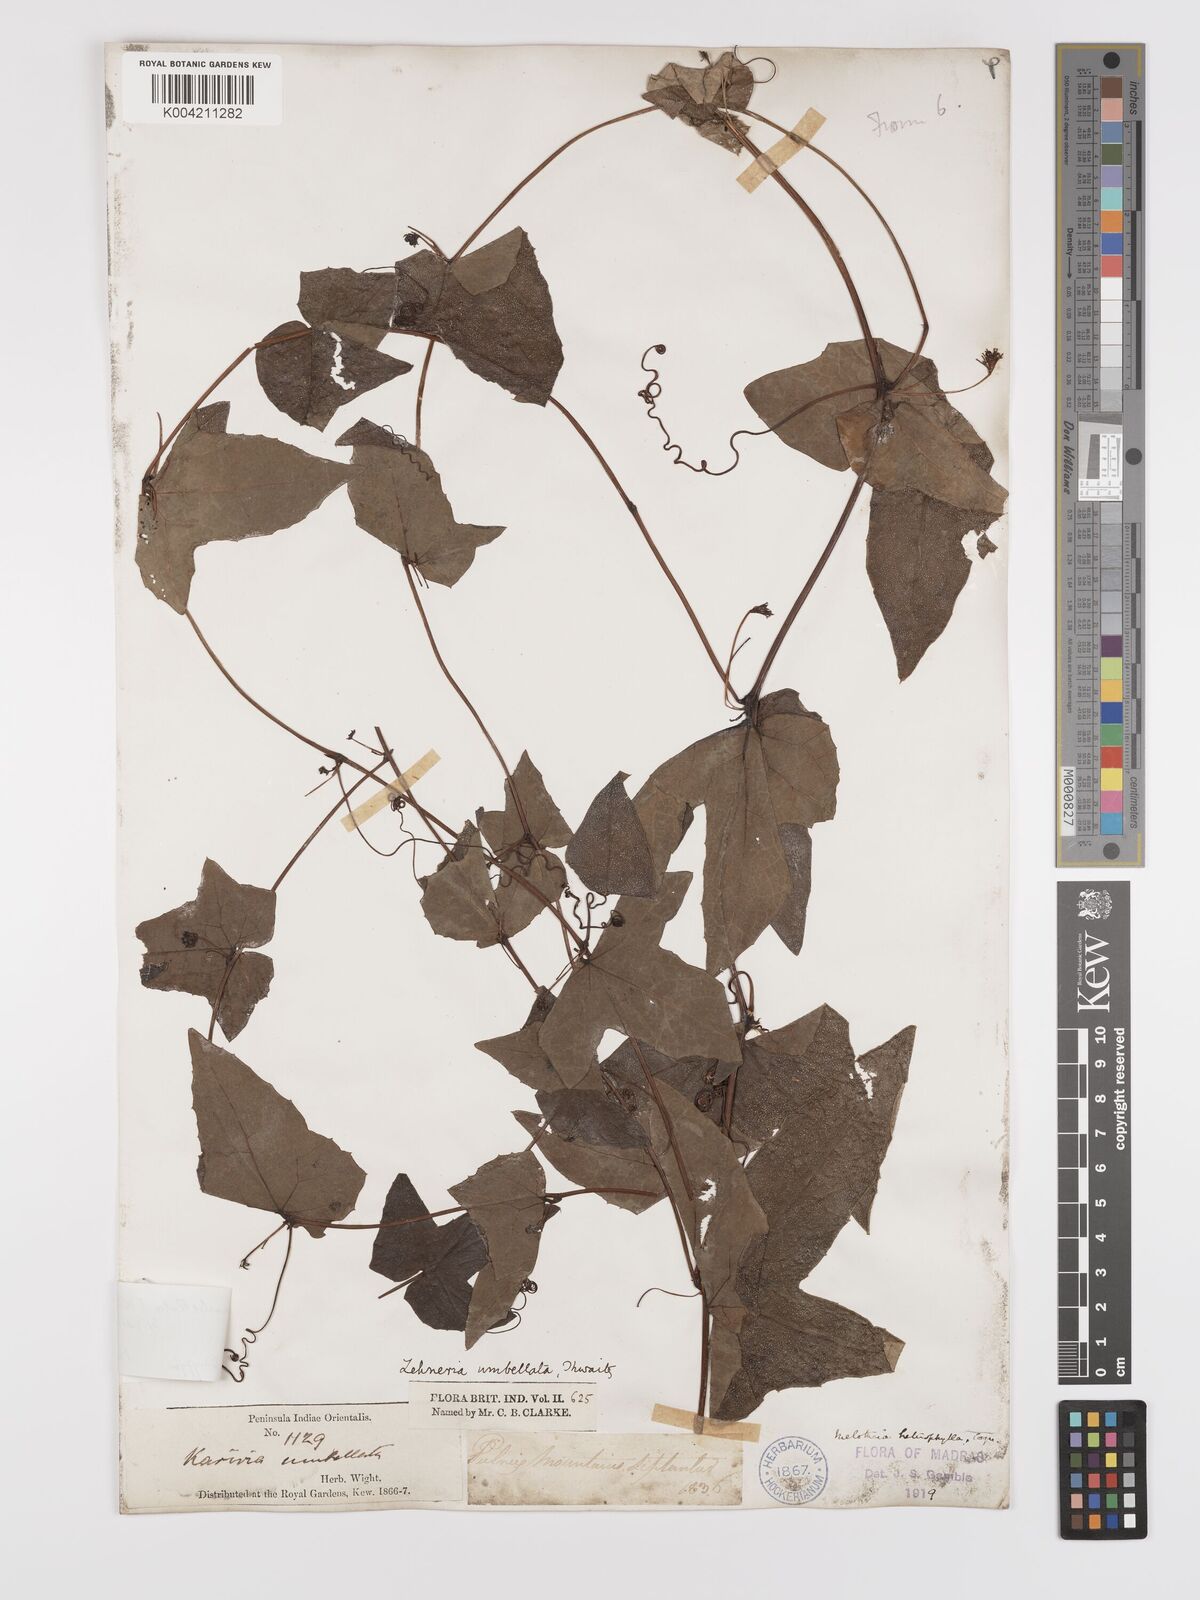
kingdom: Plantae
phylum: Tracheophyta
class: Magnoliopsida
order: Cucurbitales
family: Cucurbitaceae
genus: Solena
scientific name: Solena amplexicaulis
